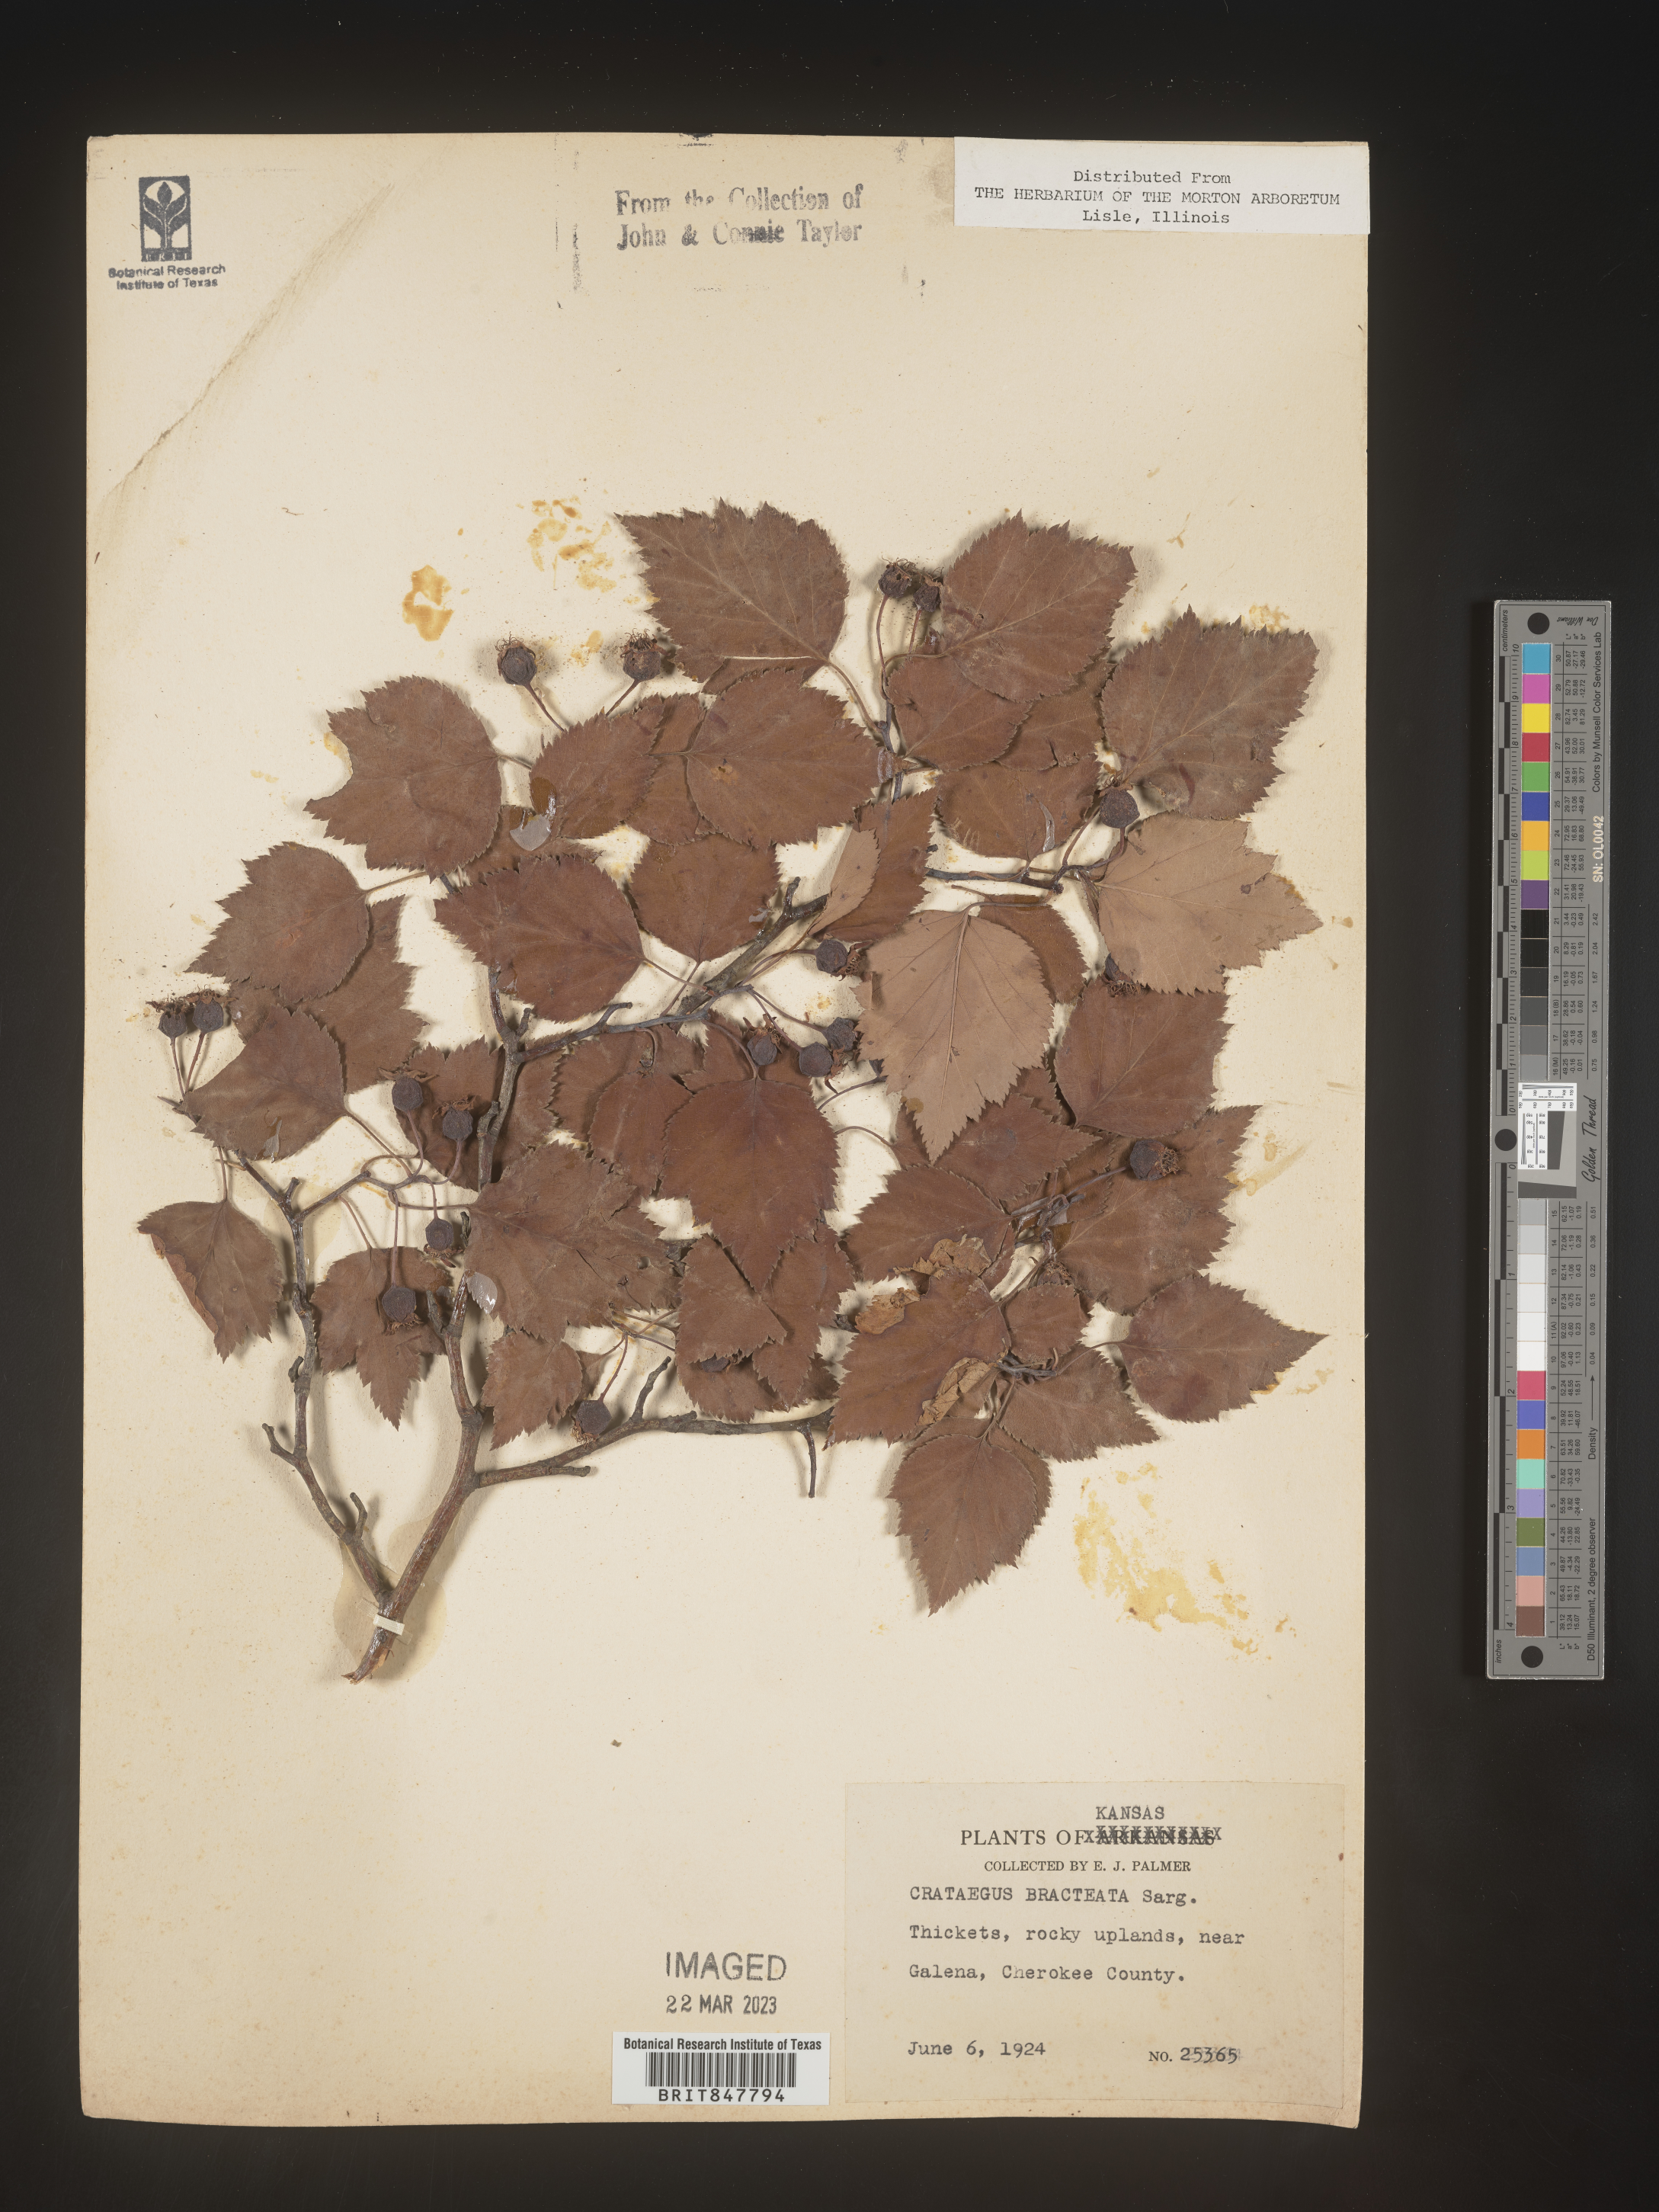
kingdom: Plantae
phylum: Tracheophyta
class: Magnoliopsida
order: Rosales
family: Rosaceae
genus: Crataegus
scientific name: Crataegus
